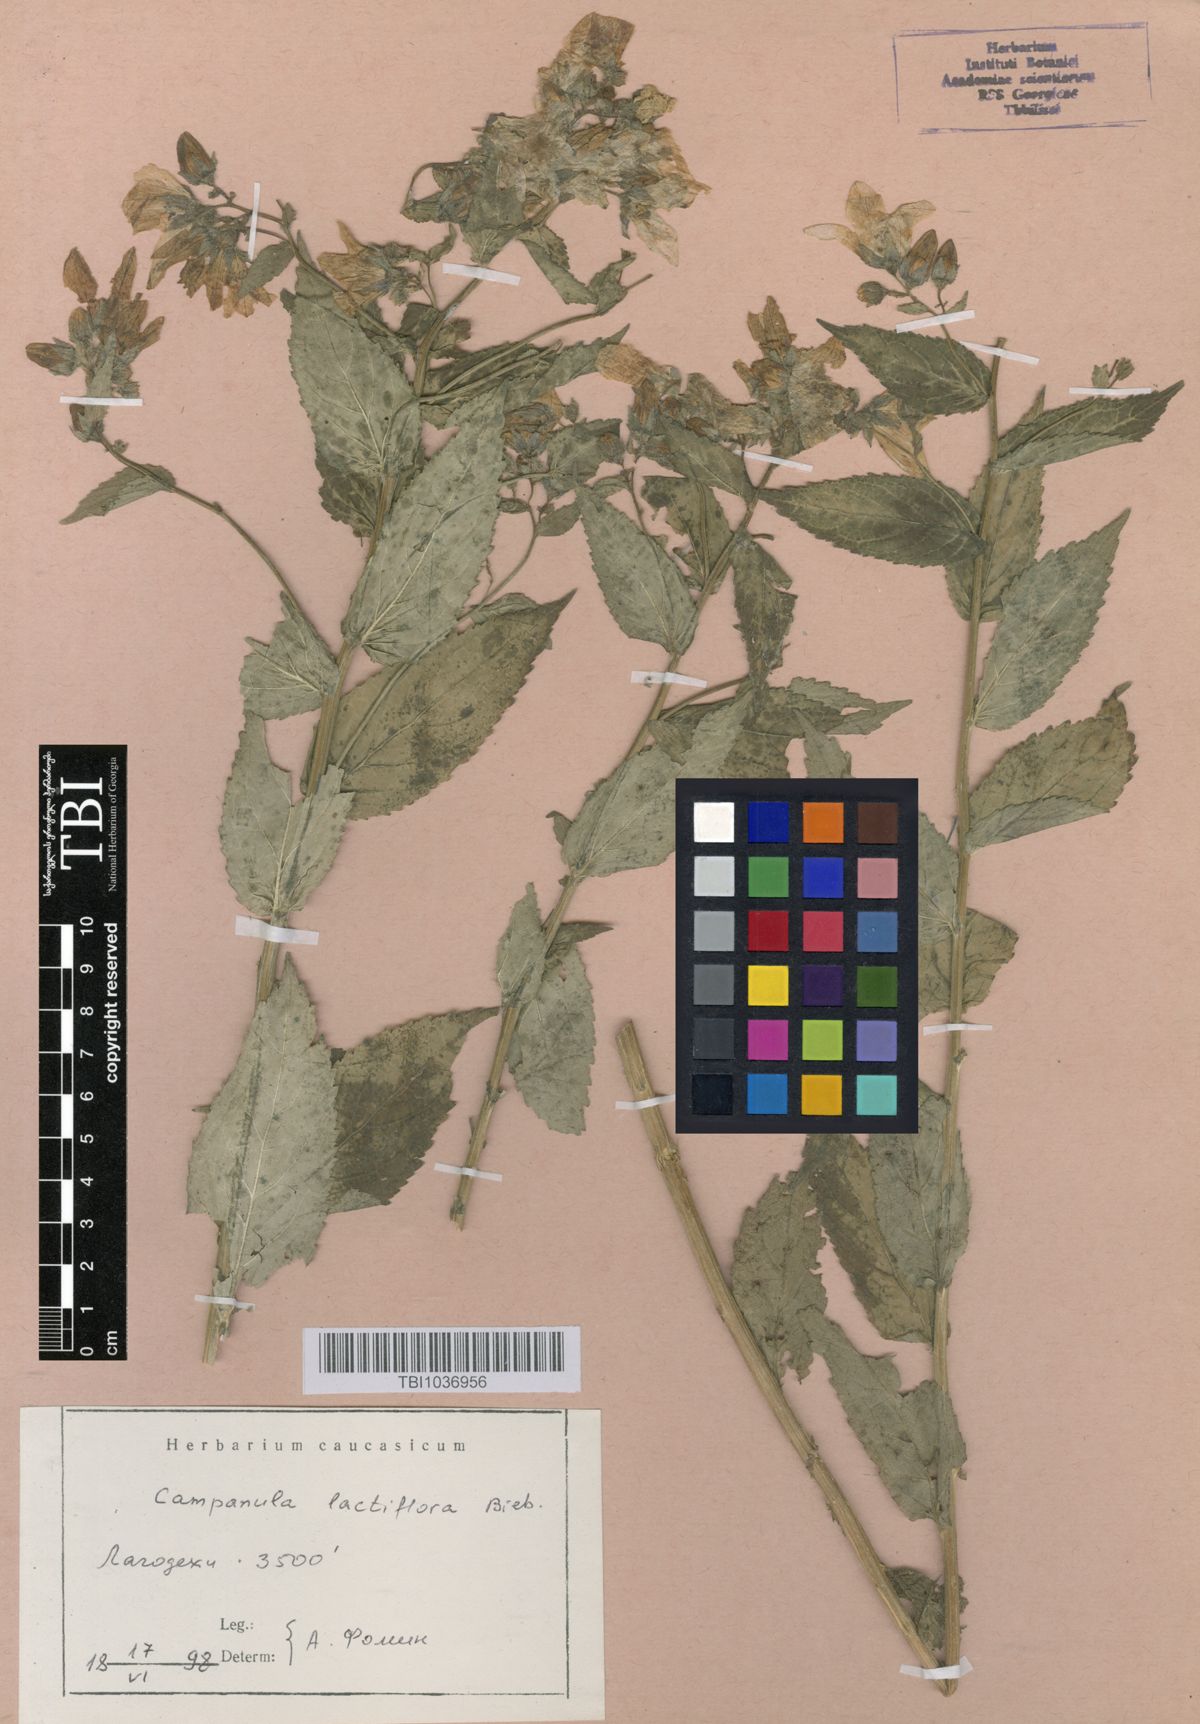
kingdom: Plantae
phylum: Tracheophyta
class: Magnoliopsida
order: Asterales
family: Campanulaceae
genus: Campanula
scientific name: Campanula lactiflora
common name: Milky bellflower
